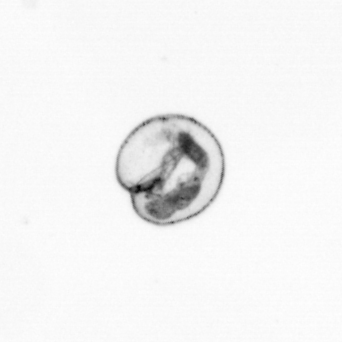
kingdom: Chromista
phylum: Myzozoa
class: Dinophyceae
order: Noctilucales
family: Noctilucaceae
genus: Noctiluca
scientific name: Noctiluca scintillans
